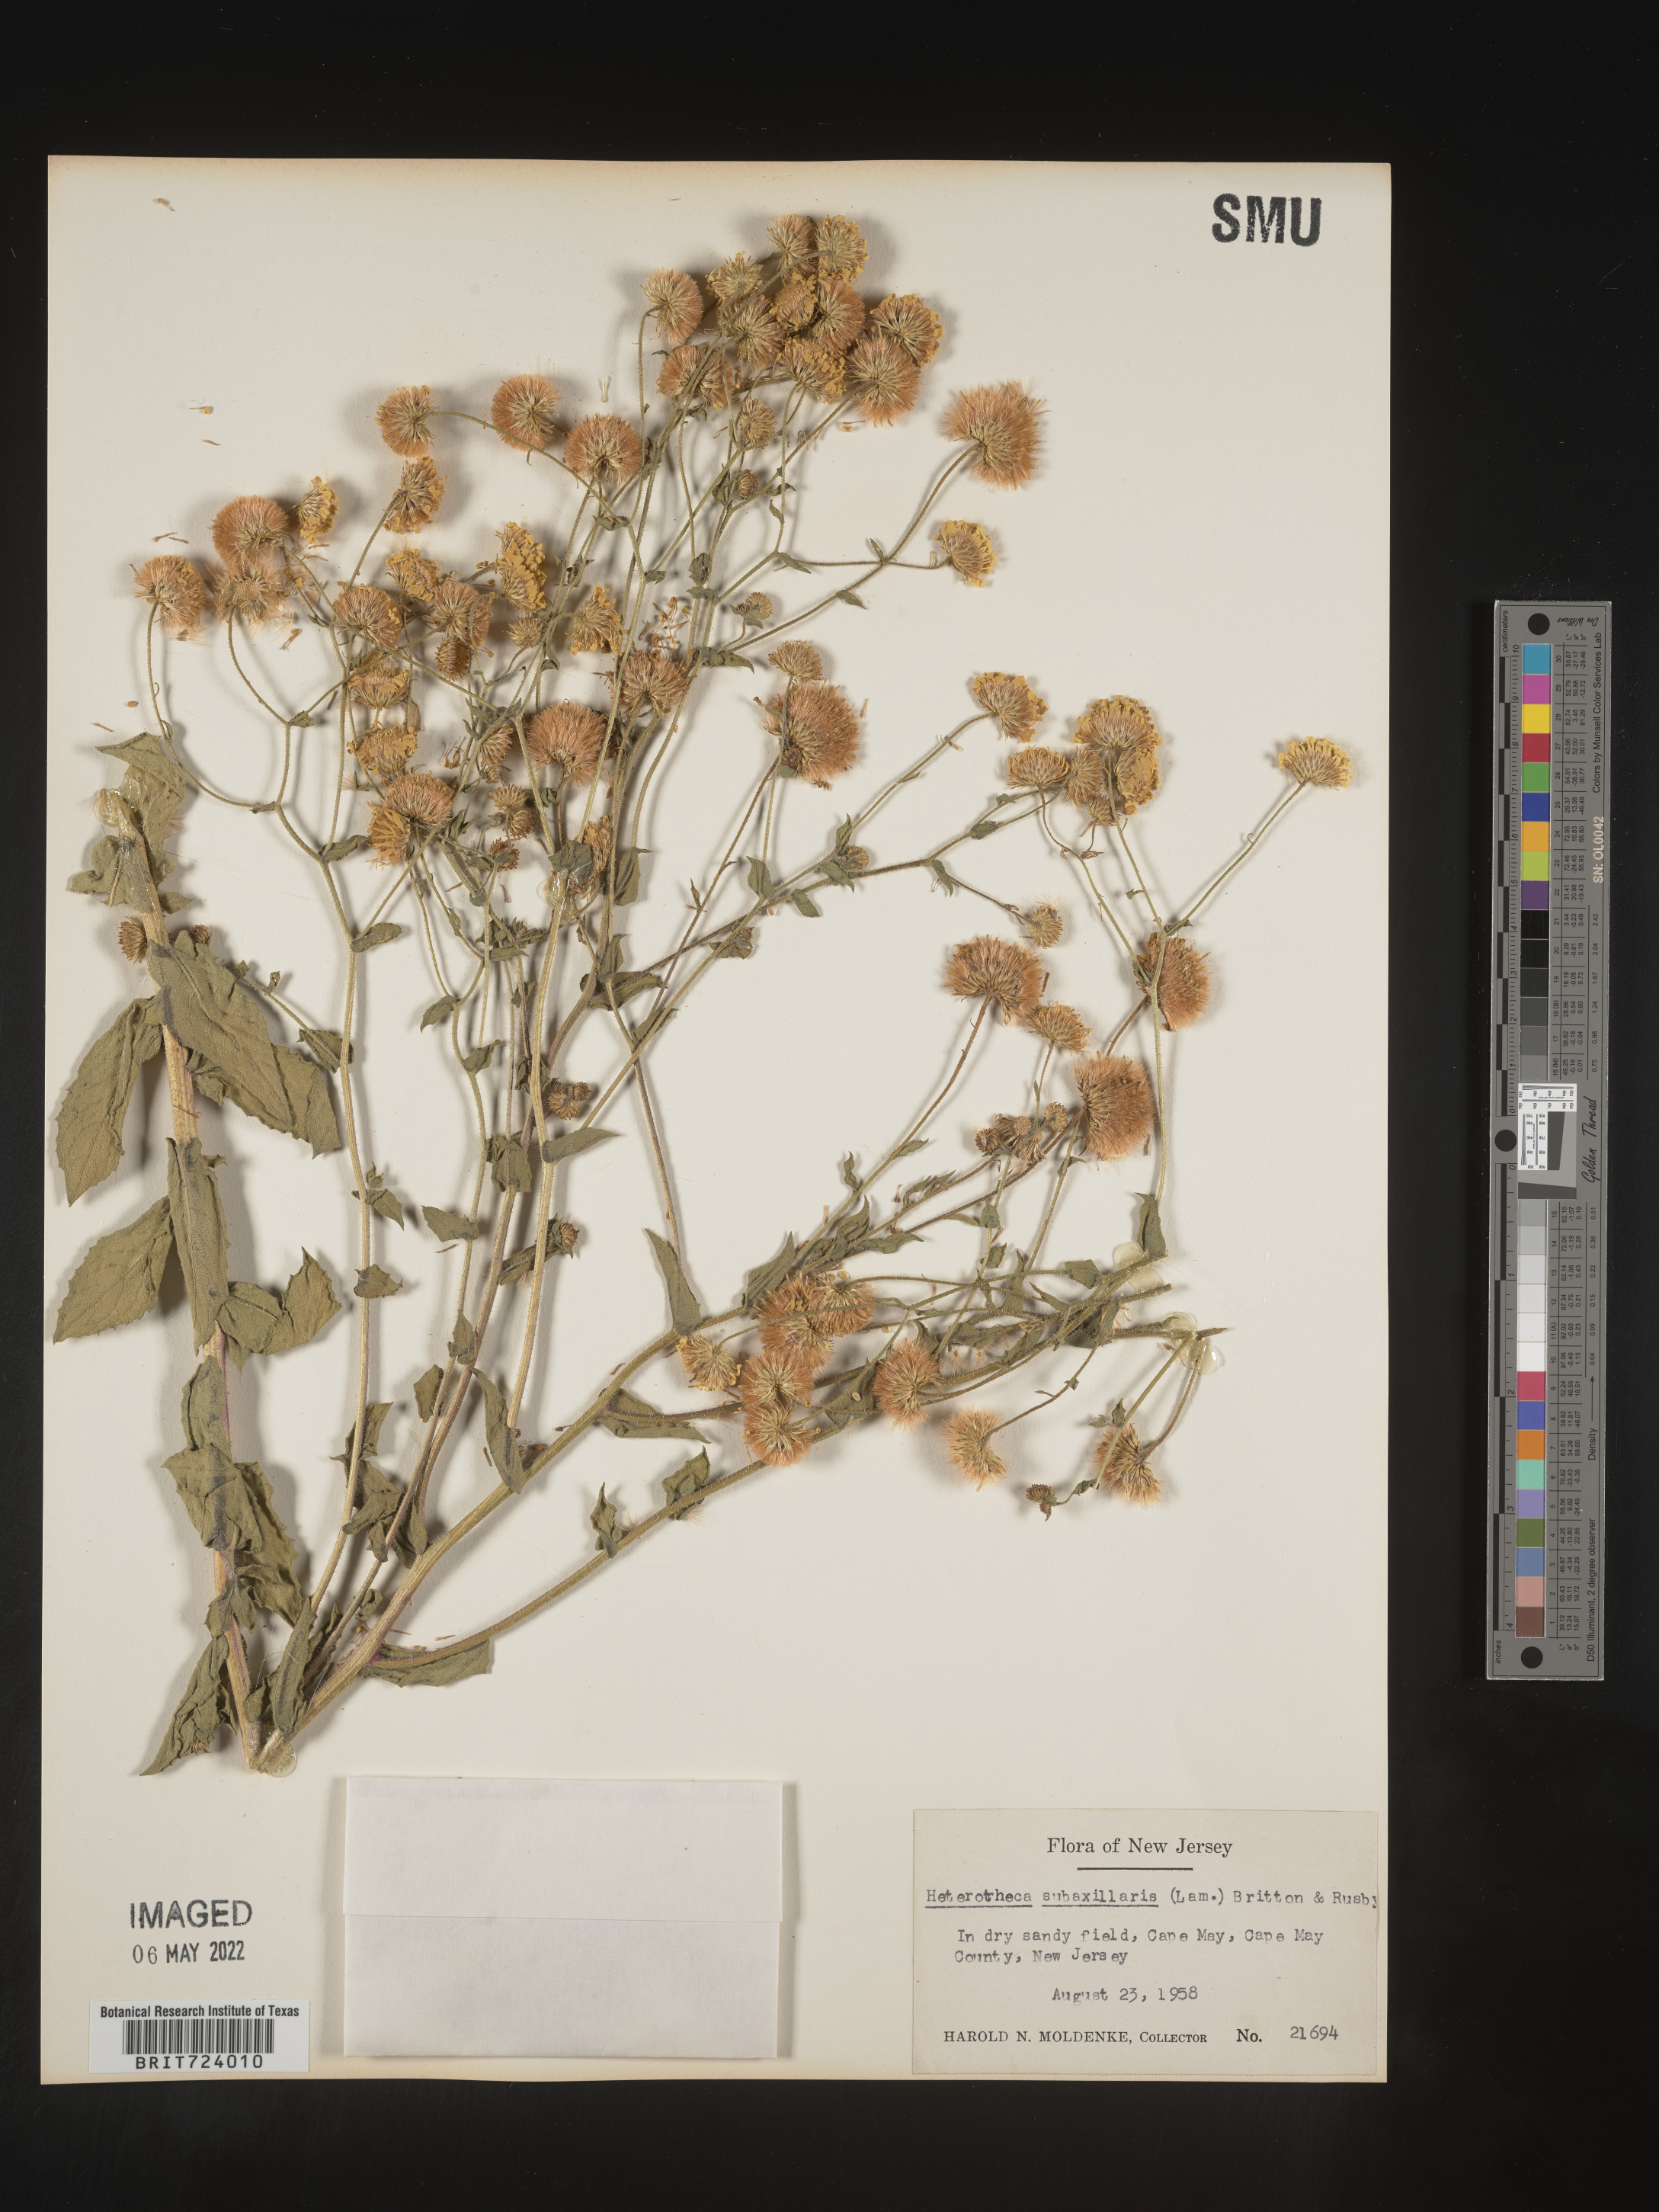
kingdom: Plantae
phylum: Tracheophyta
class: Magnoliopsida
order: Asterales
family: Asteraceae
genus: Heterotheca
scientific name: Heterotheca subaxillaris
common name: Camphorweed
